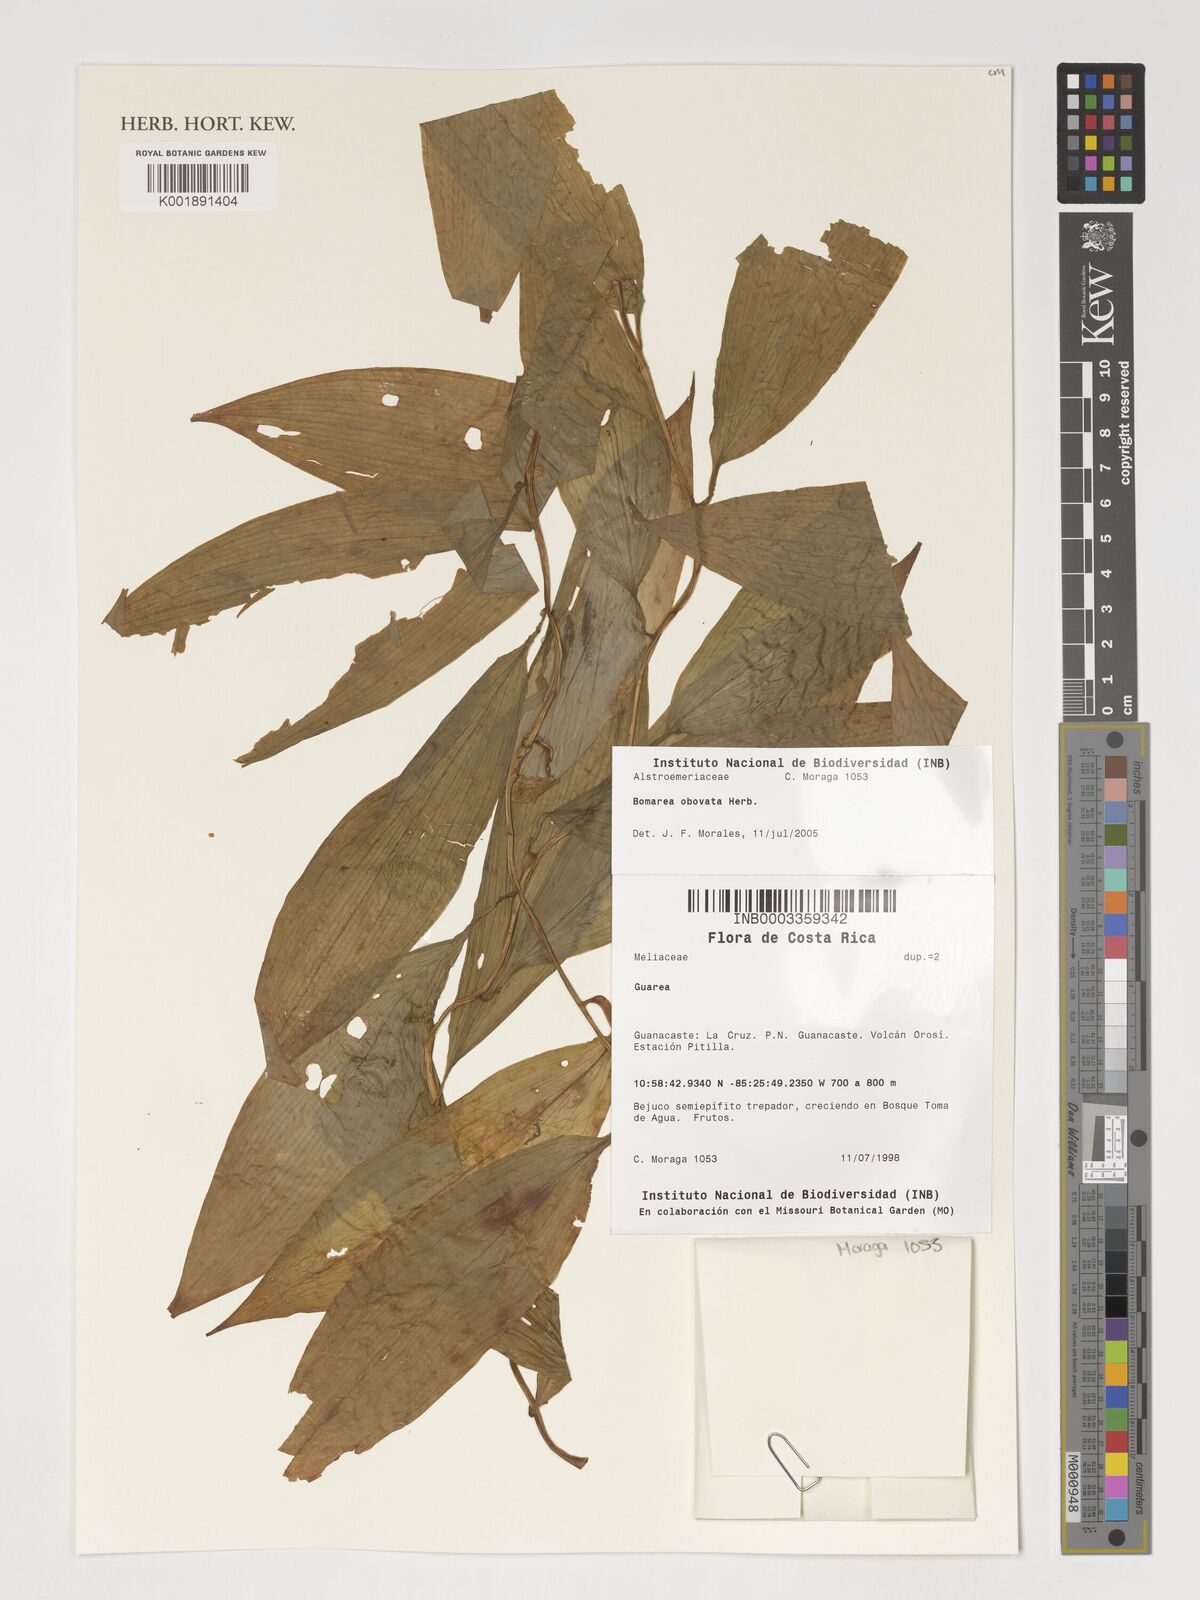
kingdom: Plantae
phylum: Tracheophyta
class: Liliopsida
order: Liliales
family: Alstroemeriaceae
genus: Bomarea
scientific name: Bomarea obovata
